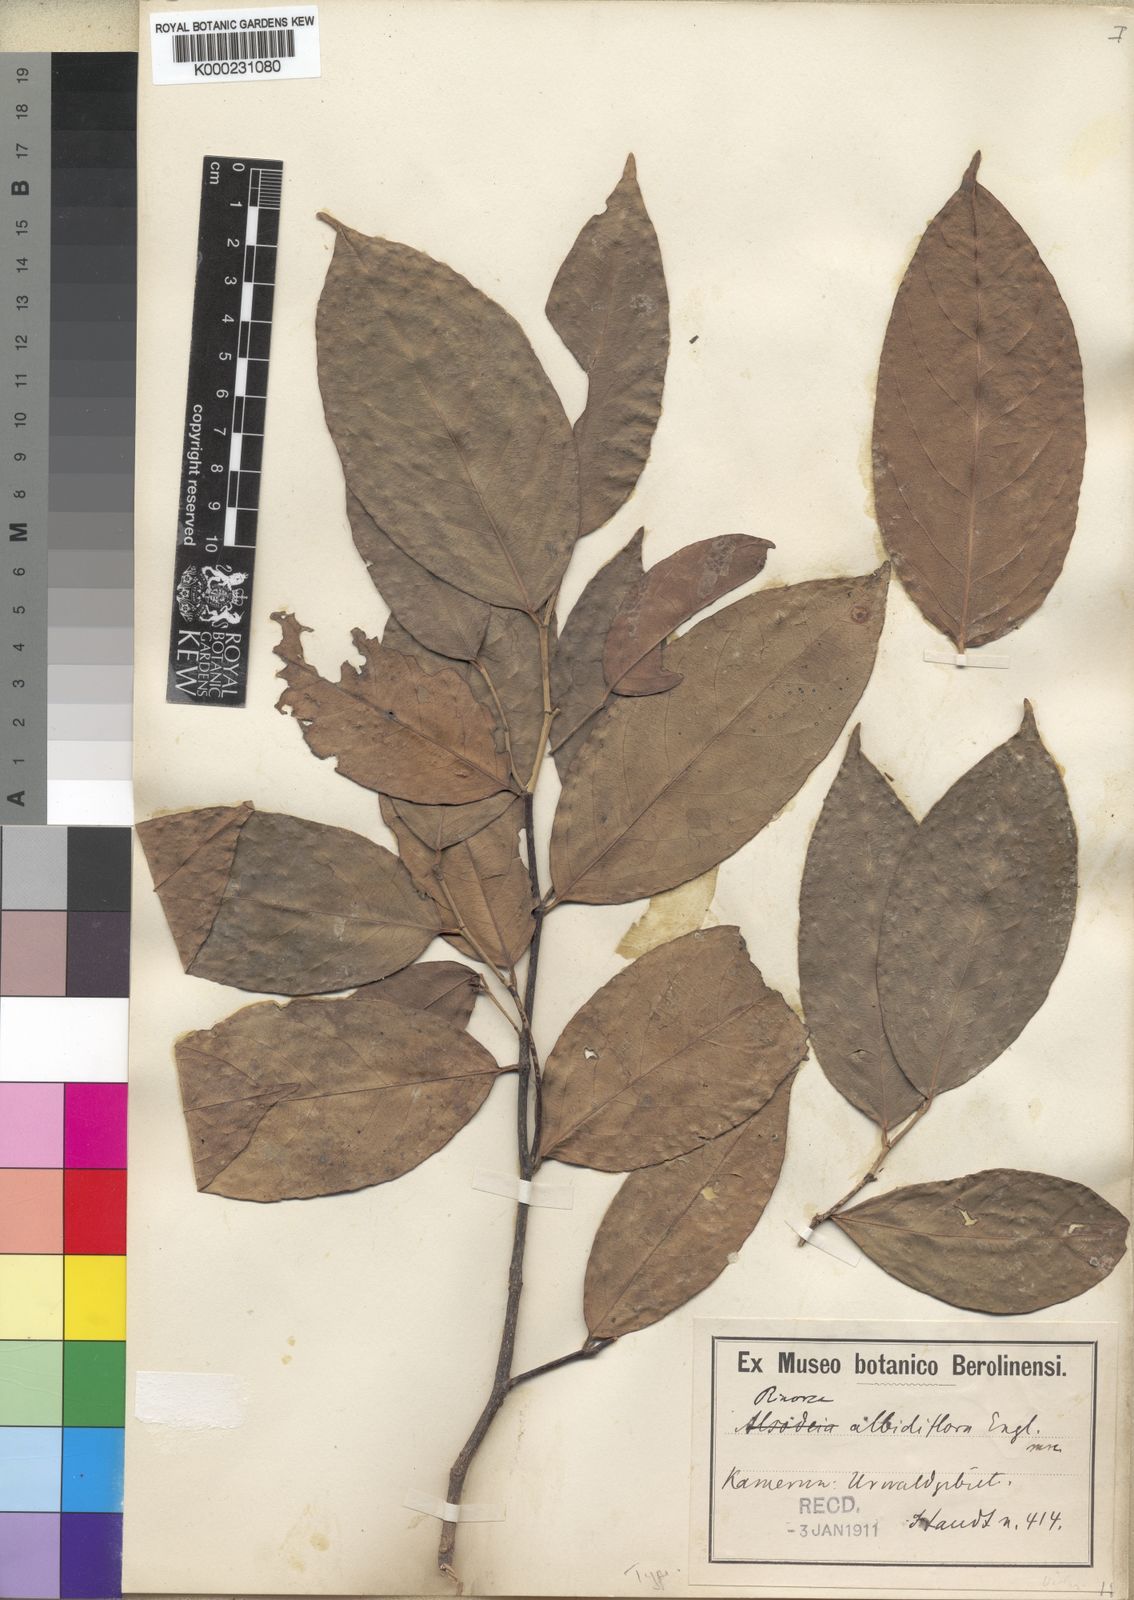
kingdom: Plantae
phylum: Tracheophyta
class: Magnoliopsida
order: Malpighiales
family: Violaceae
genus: Rinorea
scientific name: Rinorea albidiflora
